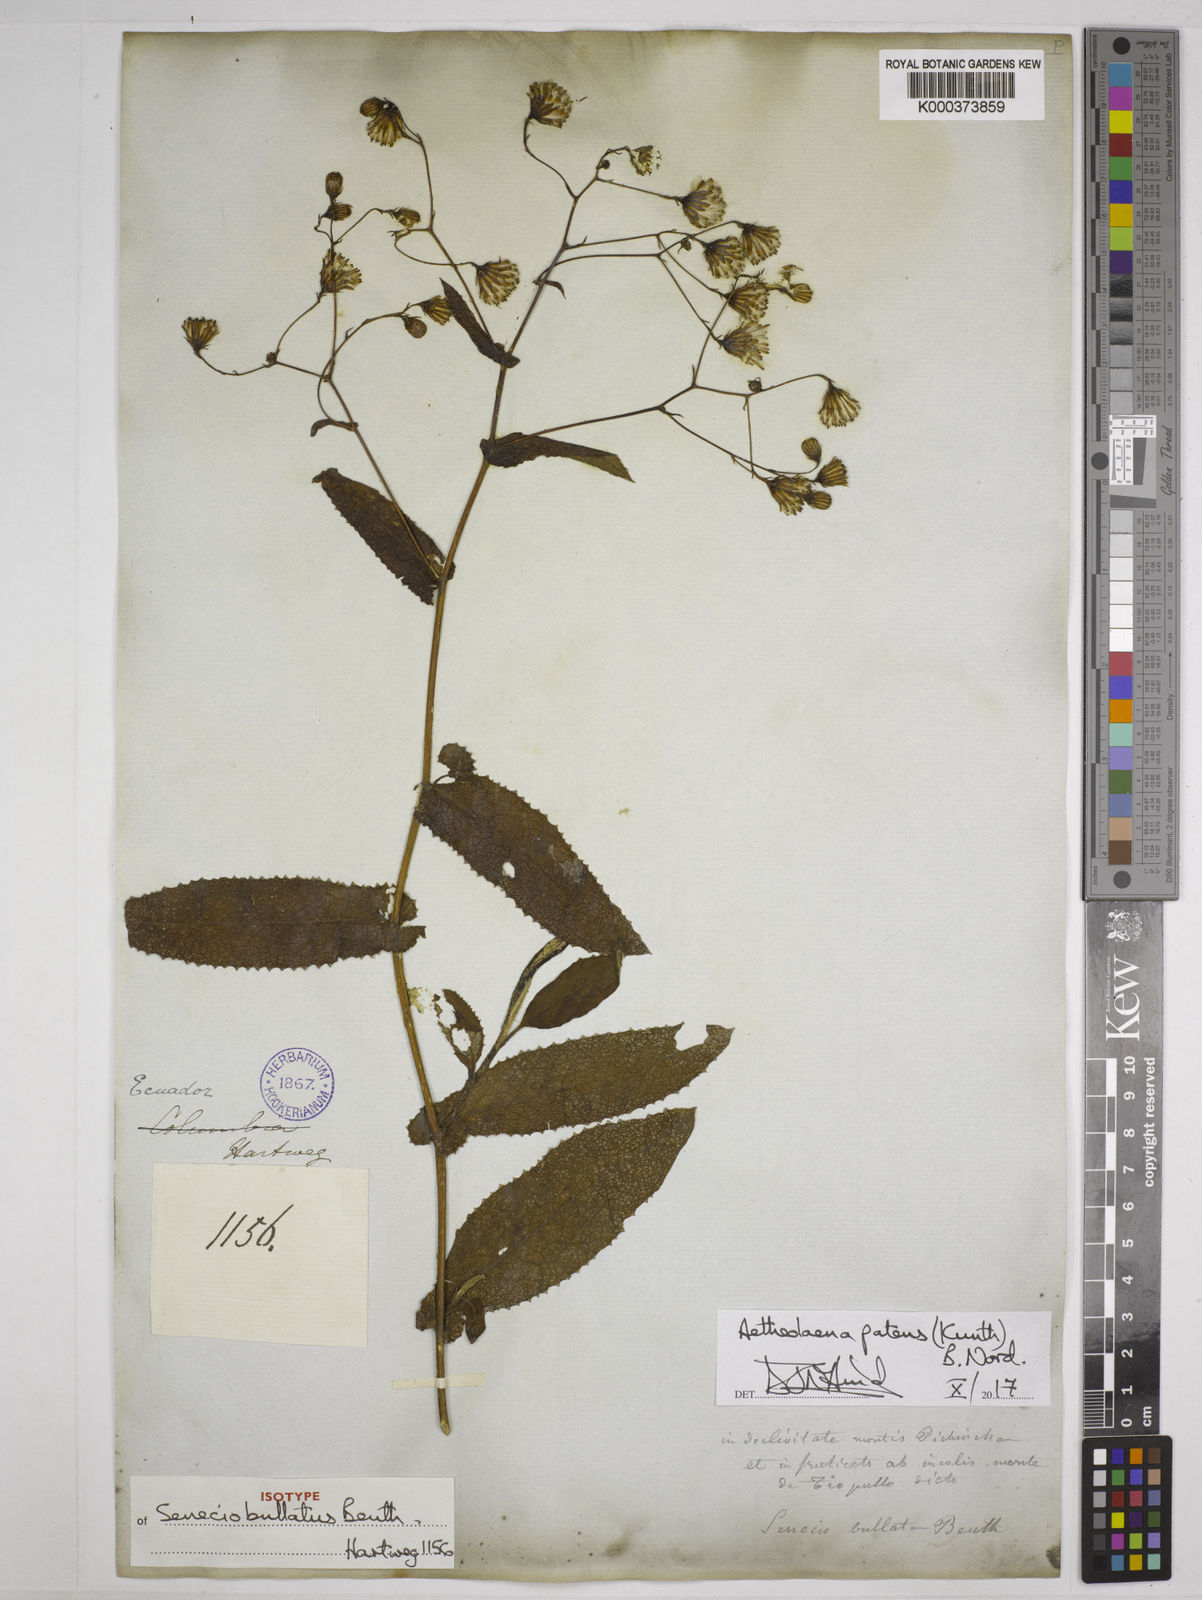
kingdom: Plantae
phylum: Tracheophyta
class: Magnoliopsida
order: Asterales
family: Asteraceae
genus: Aetheolaena
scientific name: Aetheolaena patens
